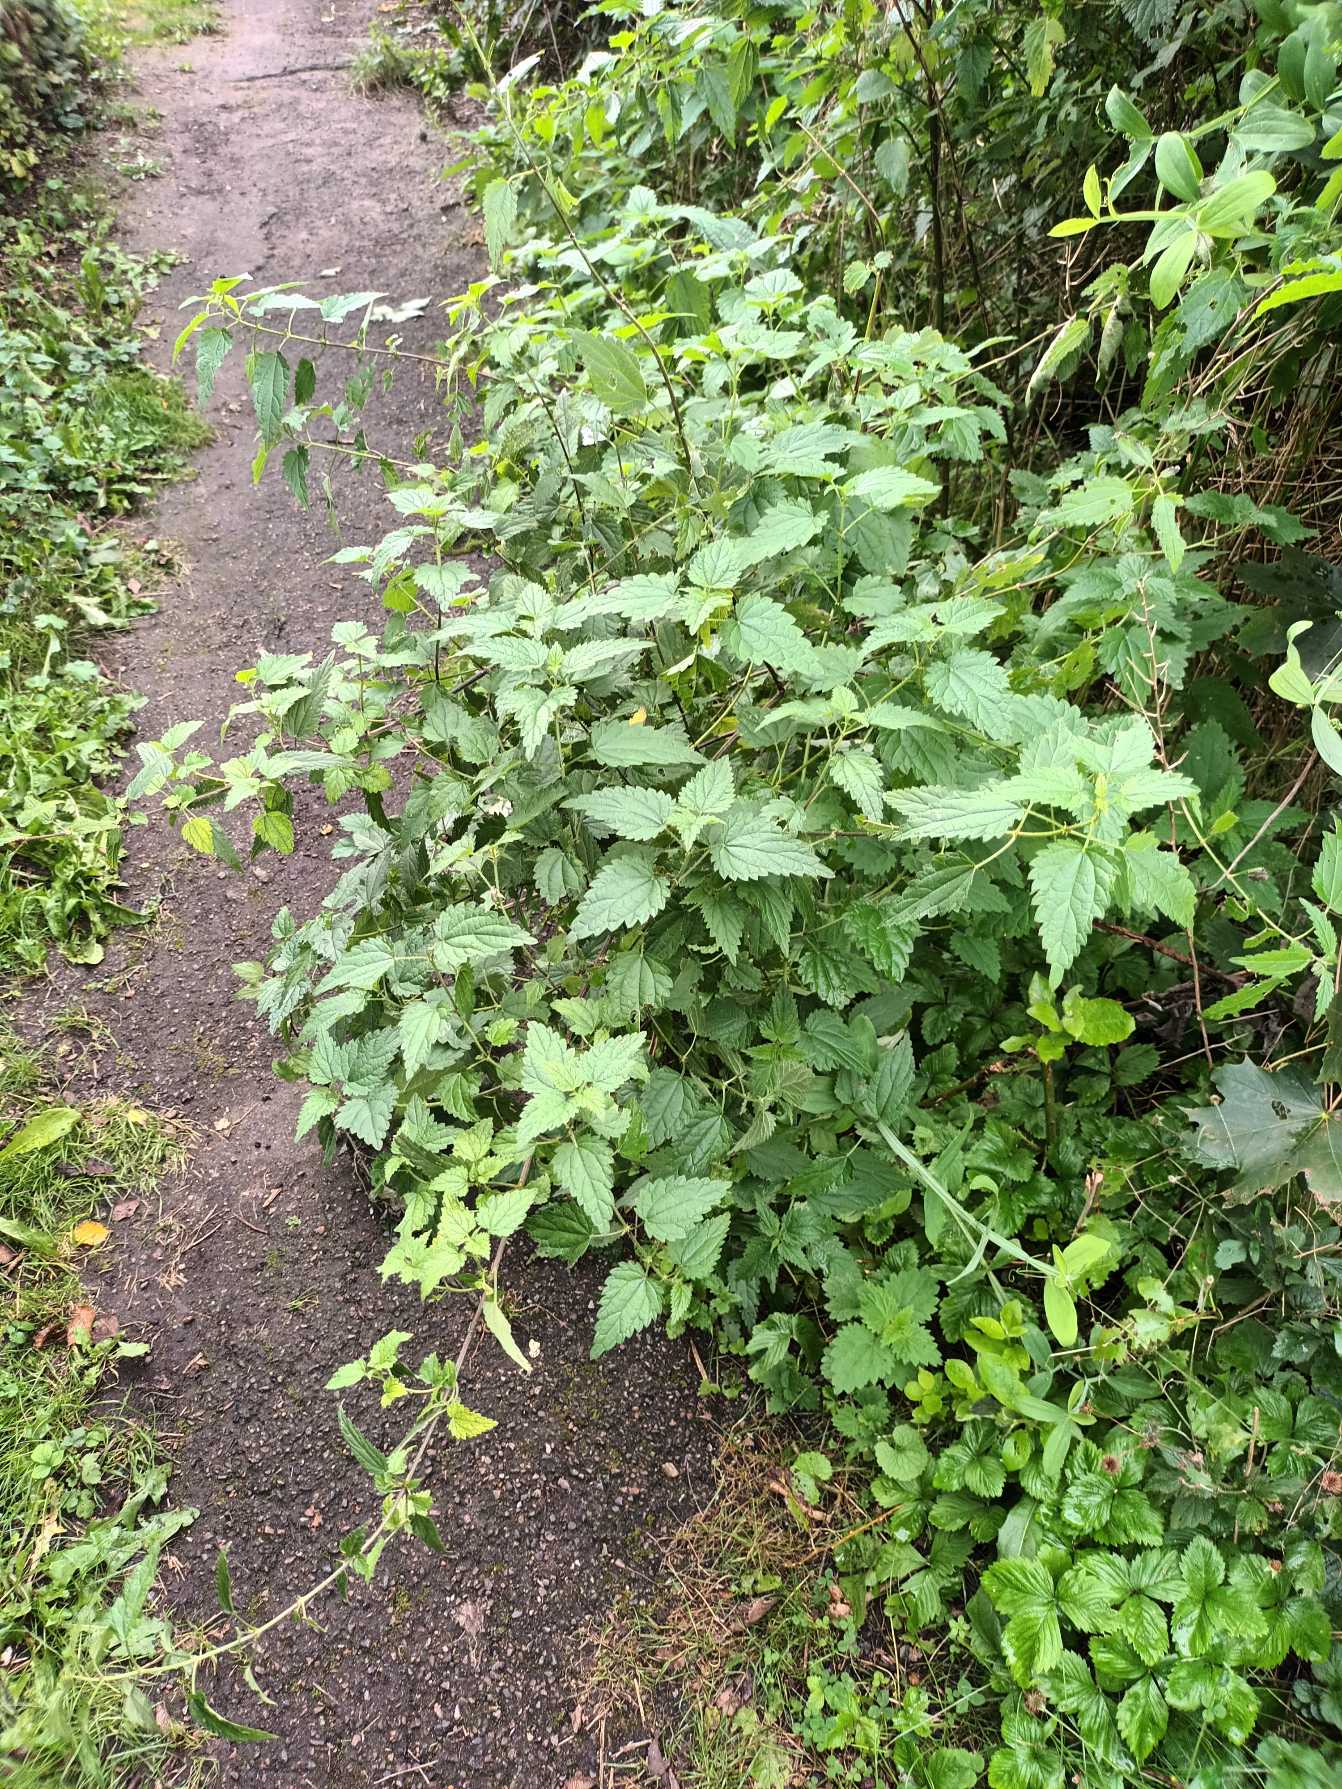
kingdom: Plantae
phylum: Tracheophyta
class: Magnoliopsida
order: Rosales
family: Urticaceae
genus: Urtica
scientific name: Urtica dioica
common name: Stor nælde
